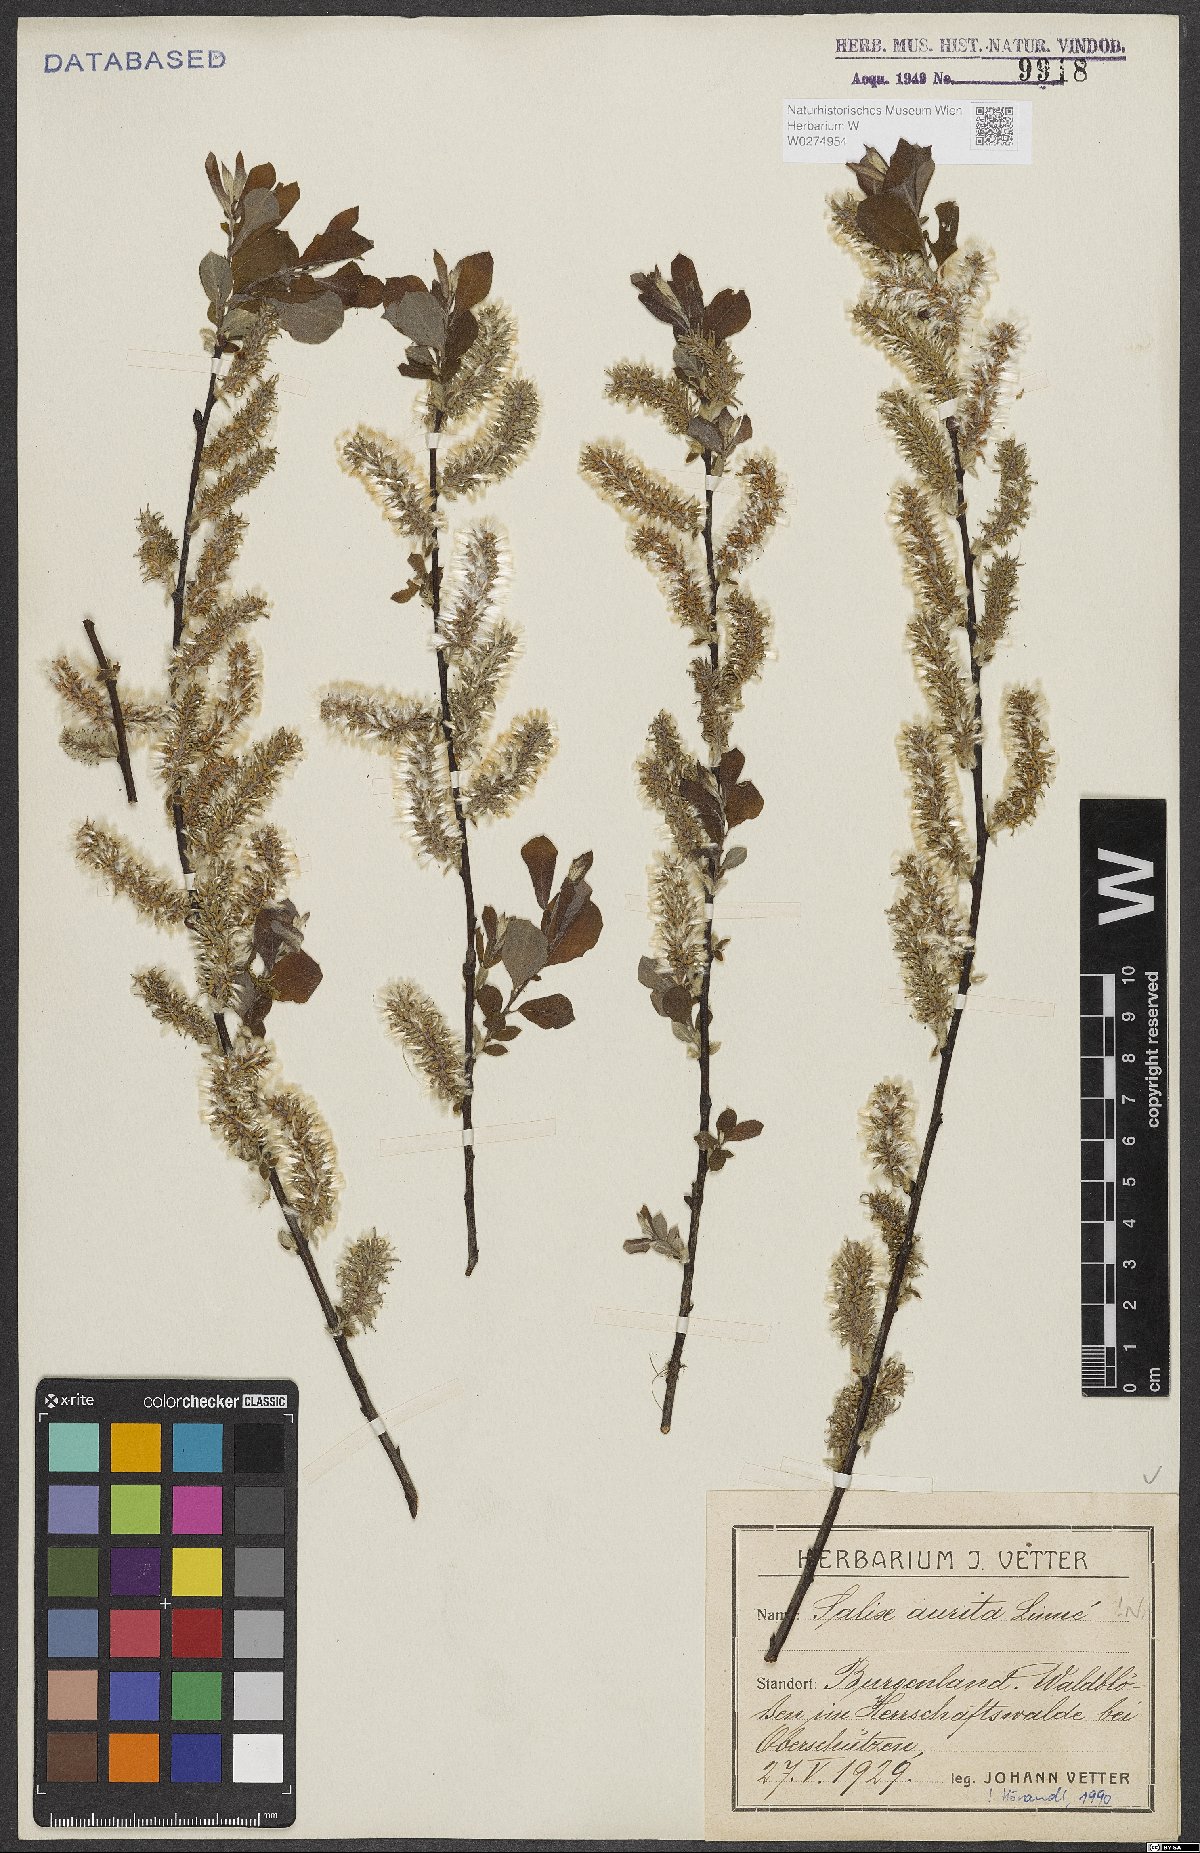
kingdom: Plantae
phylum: Tracheophyta
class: Magnoliopsida
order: Malpighiales
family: Salicaceae
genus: Salix
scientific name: Salix aurita
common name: Eared willow
